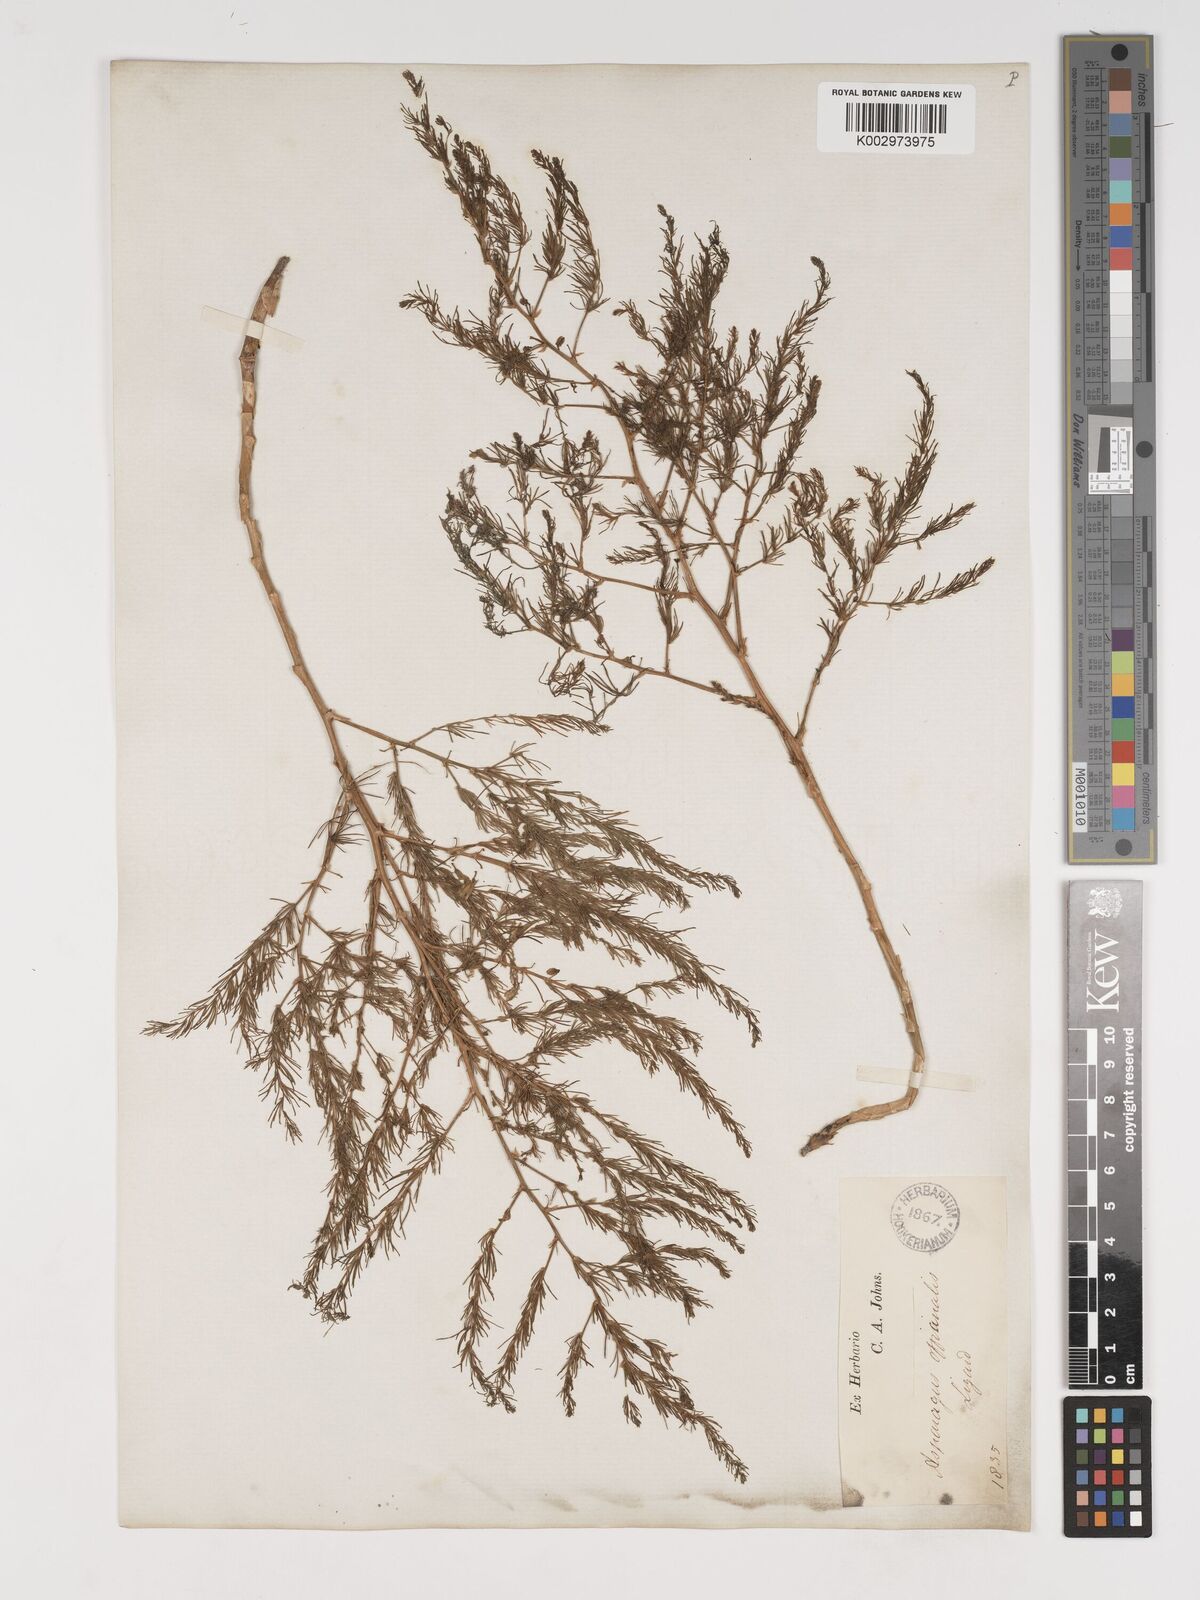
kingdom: Plantae
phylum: Tracheophyta
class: Liliopsida
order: Asparagales
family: Asparagaceae
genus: Asparagus
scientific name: Asparagus maritimus
